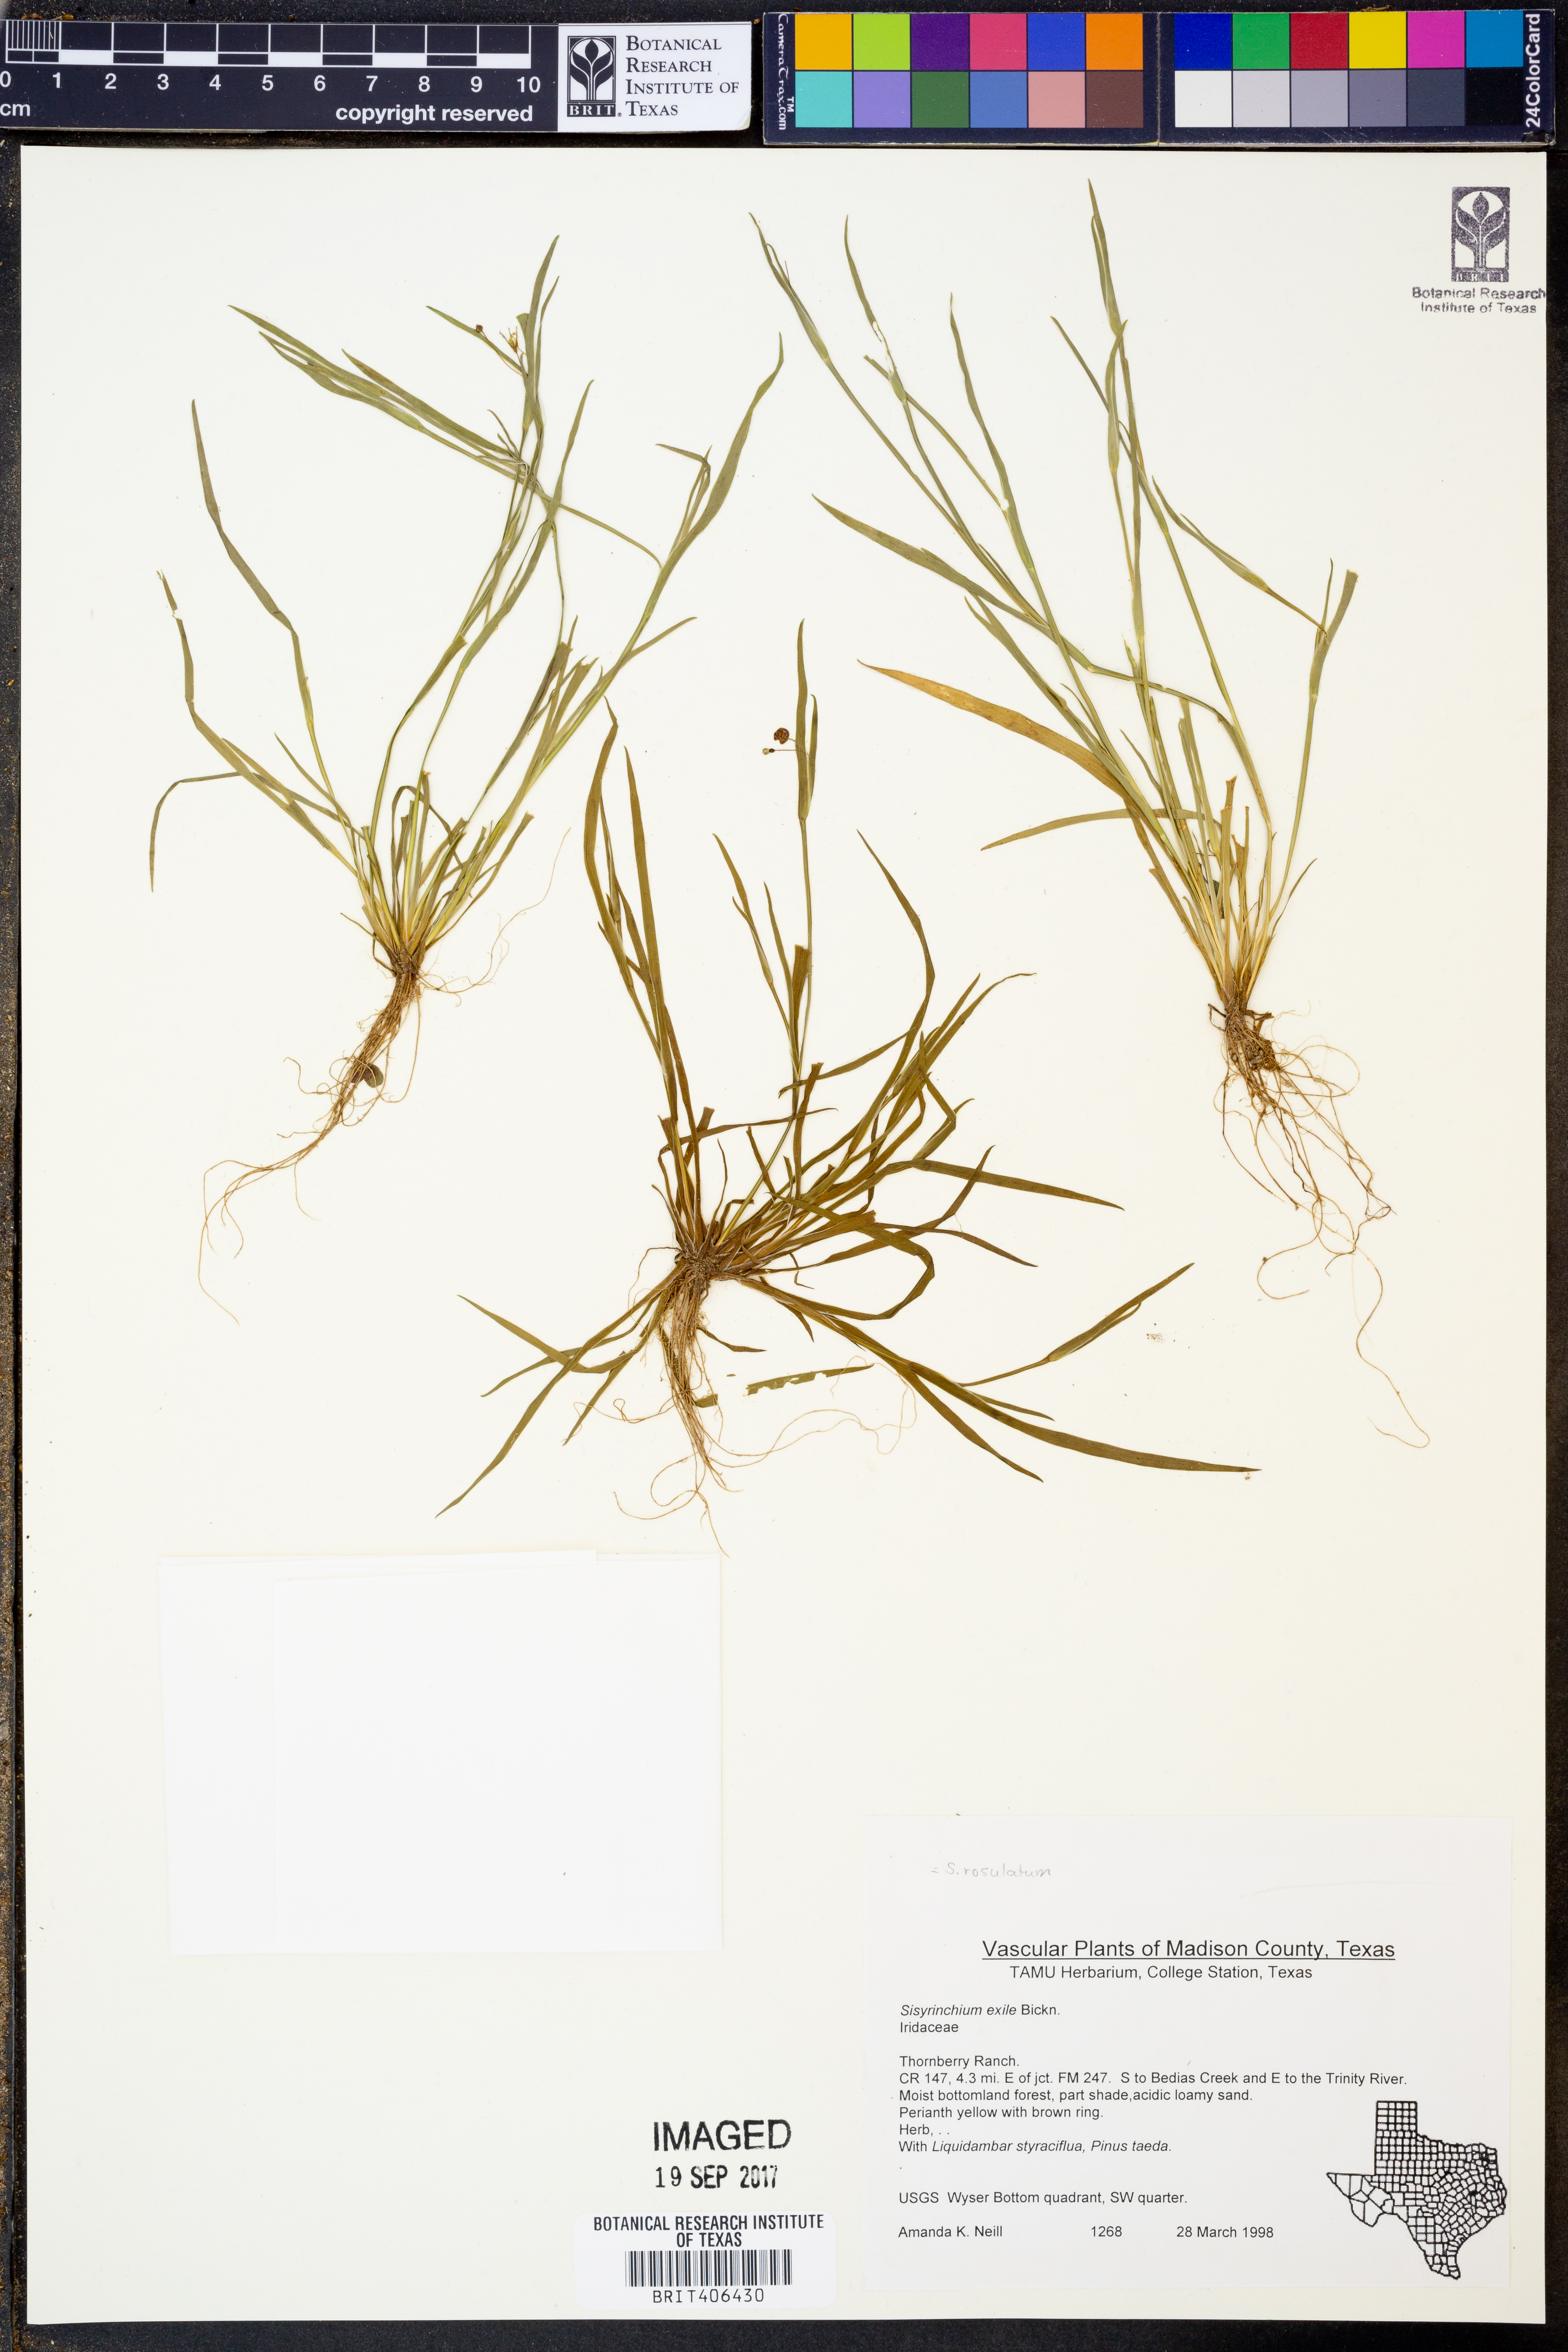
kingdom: Plantae
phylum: Tracheophyta
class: Liliopsida
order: Asparagales
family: Iridaceae
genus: Sisyrinchium
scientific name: Sisyrinchium rosulatum
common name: Annual blue-eyed grass
